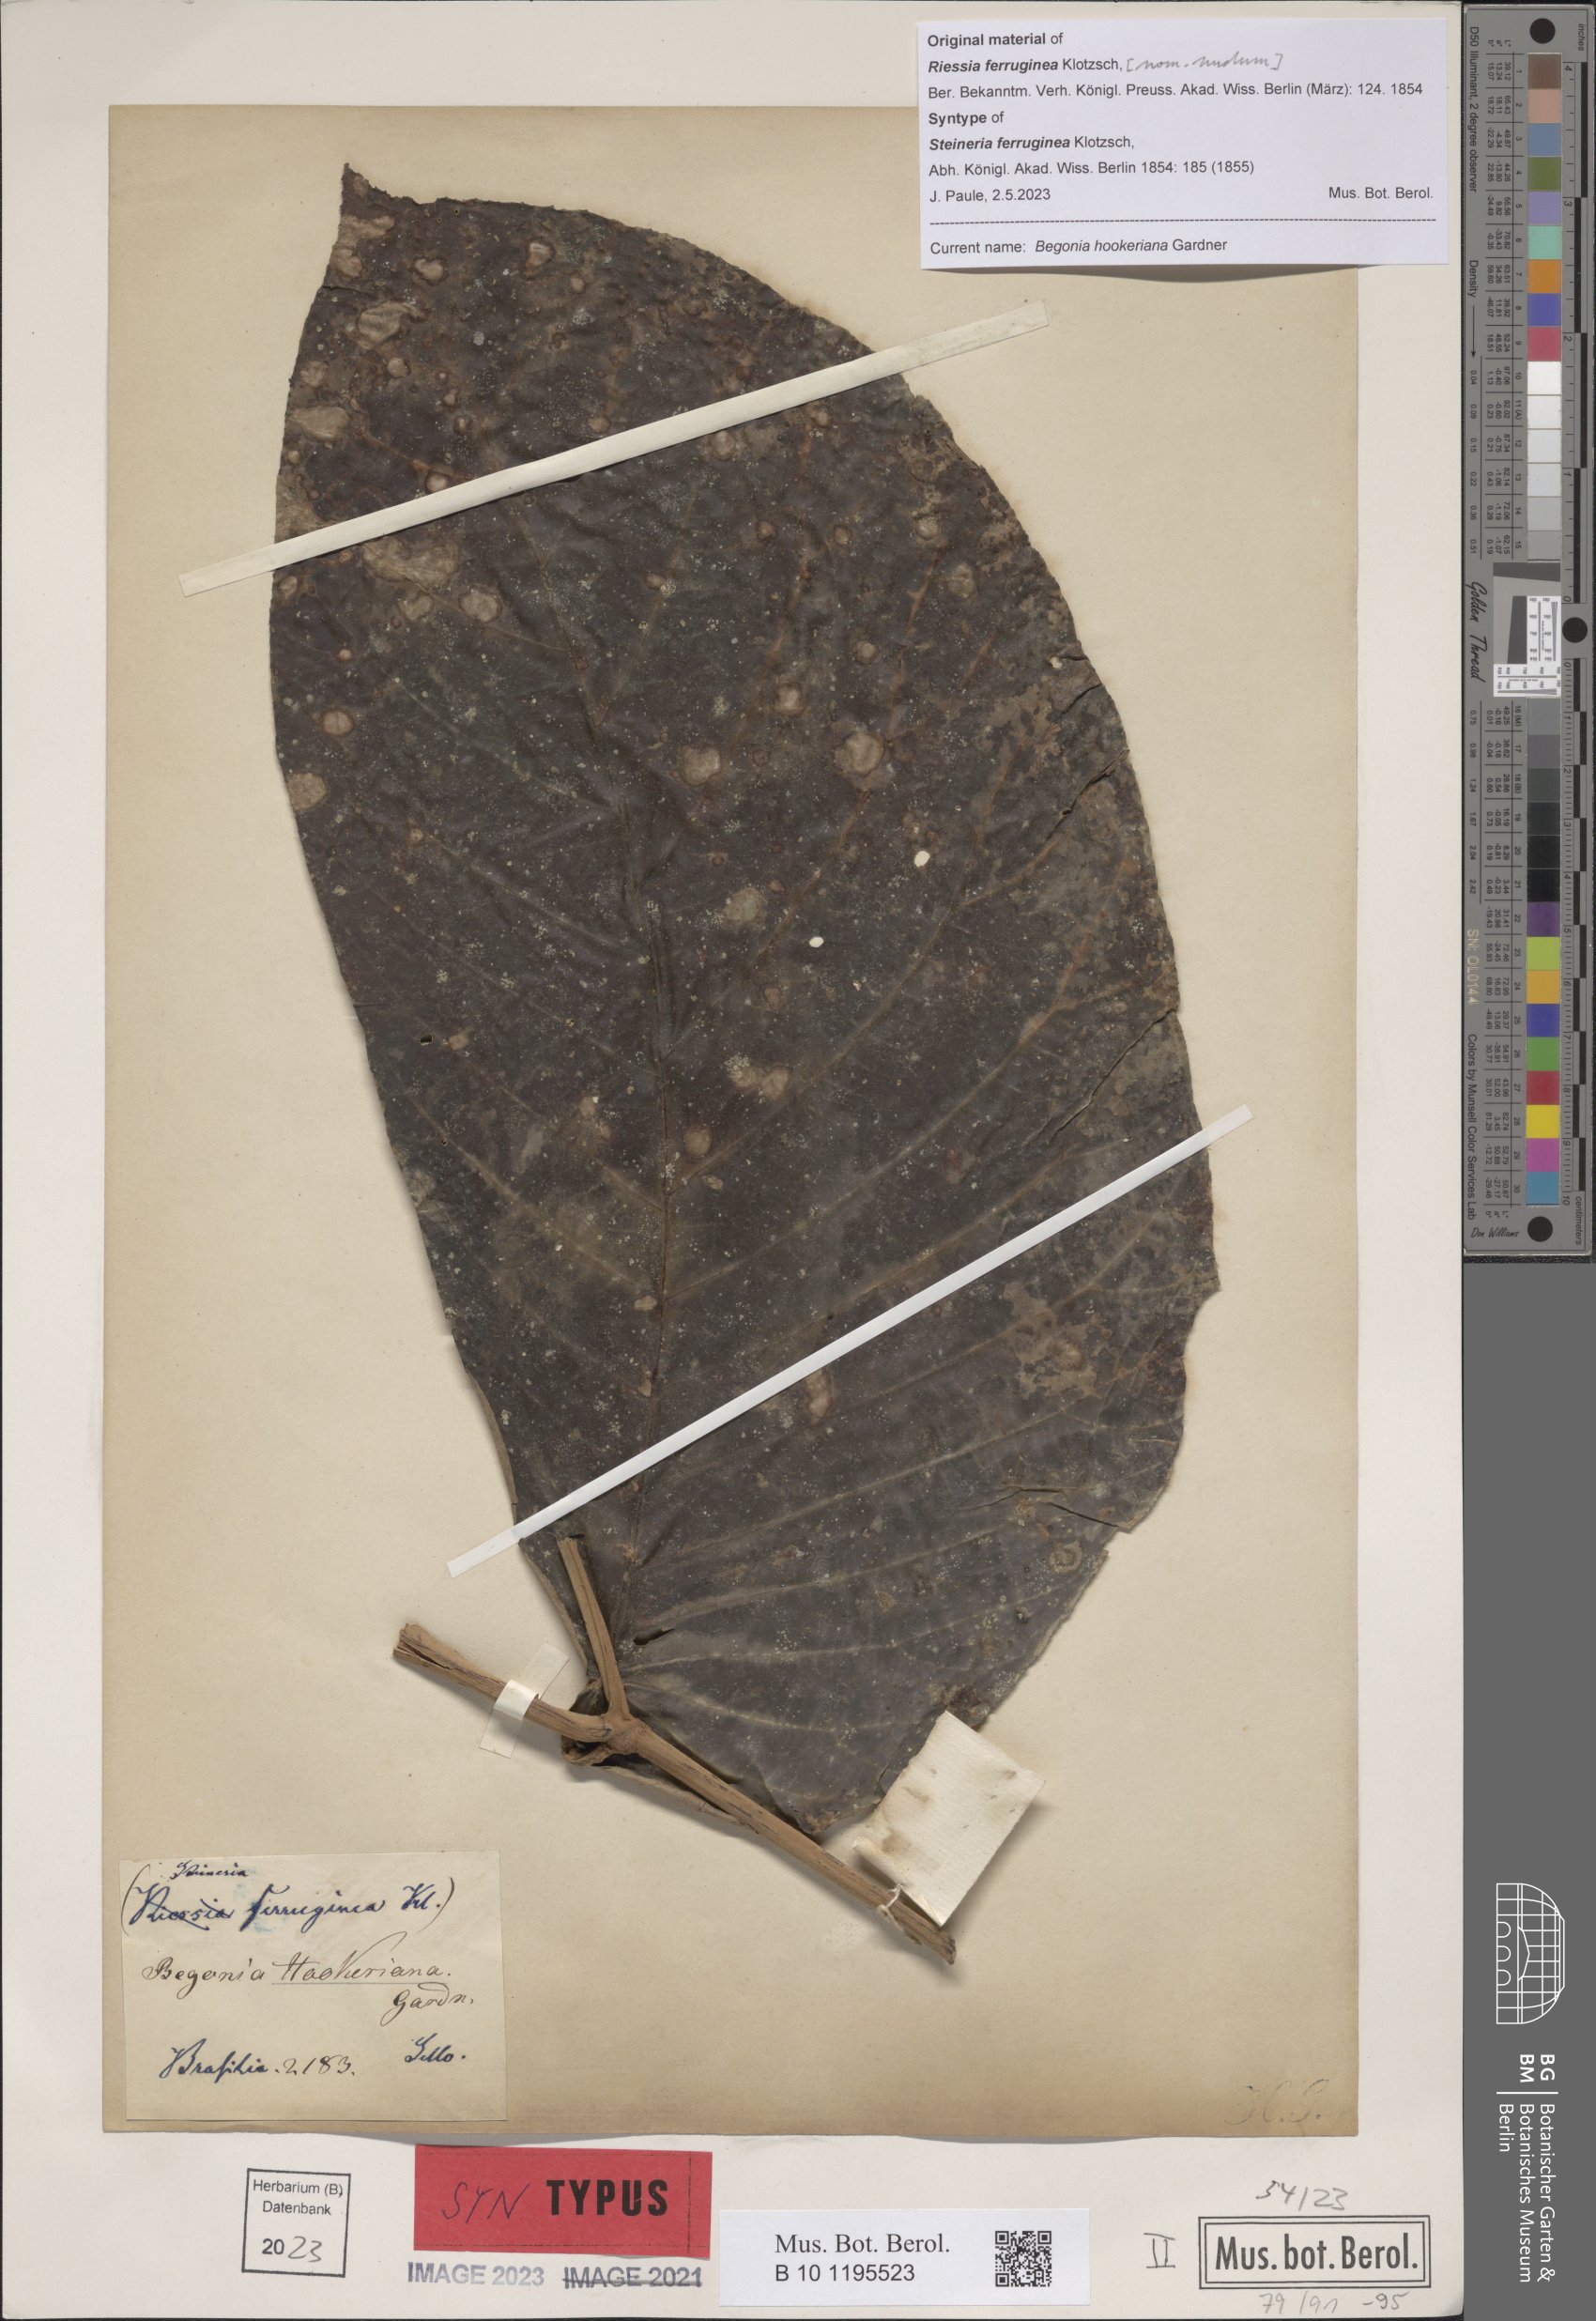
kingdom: Plantae
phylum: Tracheophyta
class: Magnoliopsida
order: Cucurbitales
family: Begoniaceae
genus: Begonia
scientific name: Begonia hookeriana
